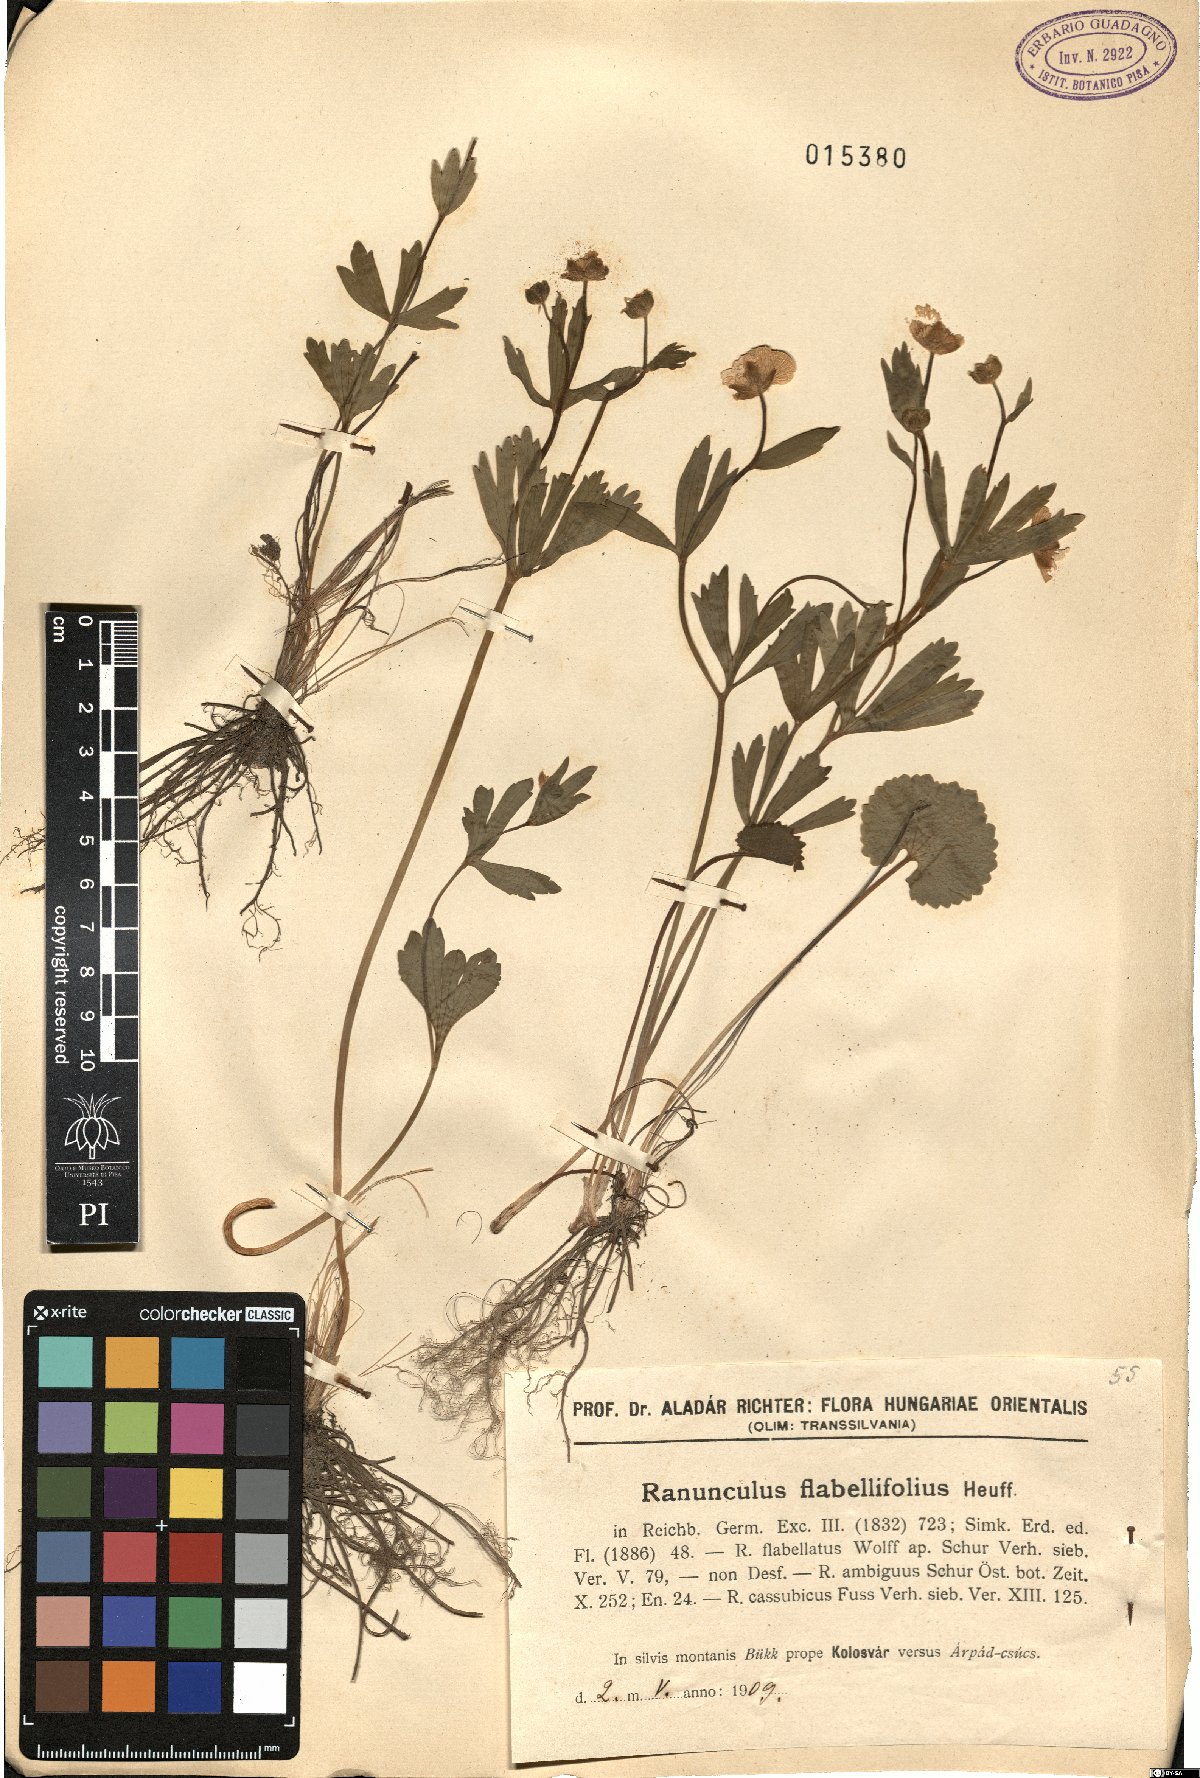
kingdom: Plantae
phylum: Tracheophyta
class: Magnoliopsida
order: Ranunculales
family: Ranunculaceae
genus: Ranunculus
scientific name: Ranunculus flabellifolius
